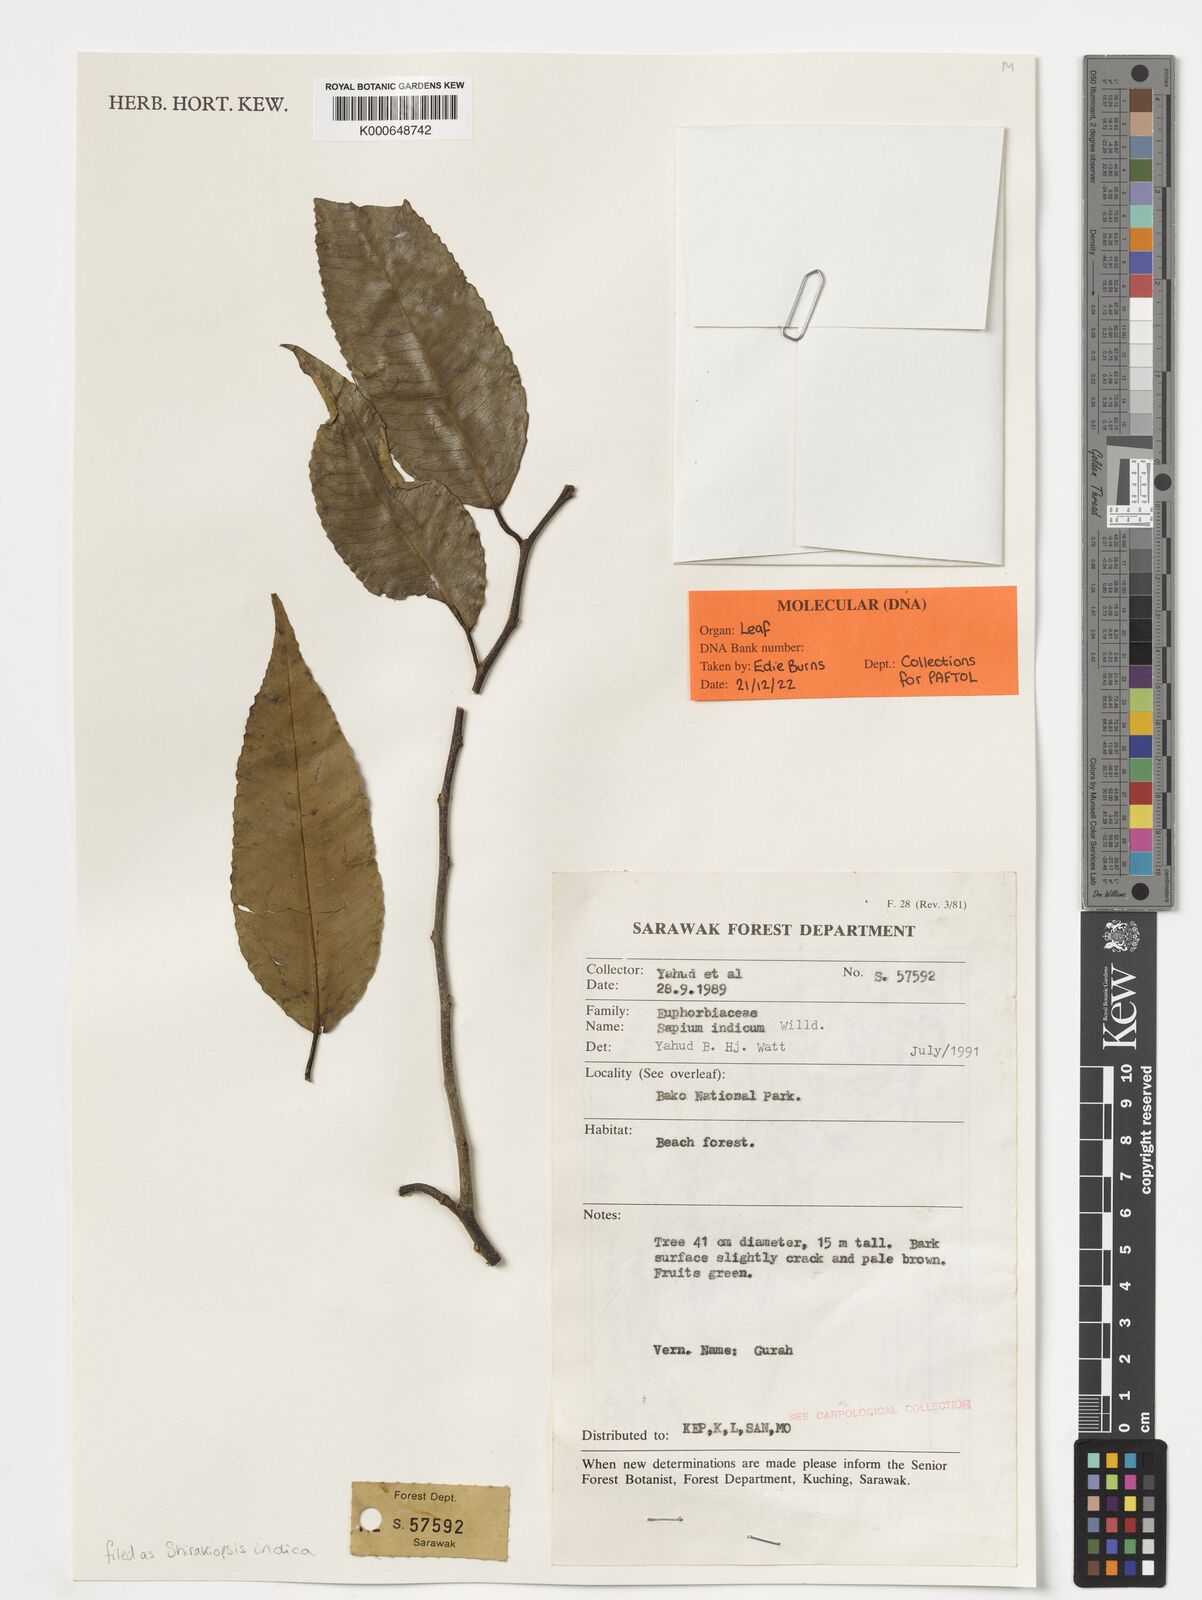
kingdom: Plantae
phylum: Tracheophyta
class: Magnoliopsida
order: Malpighiales
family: Euphorbiaceae
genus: Shirakiopsis
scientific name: Shirakiopsis indica
